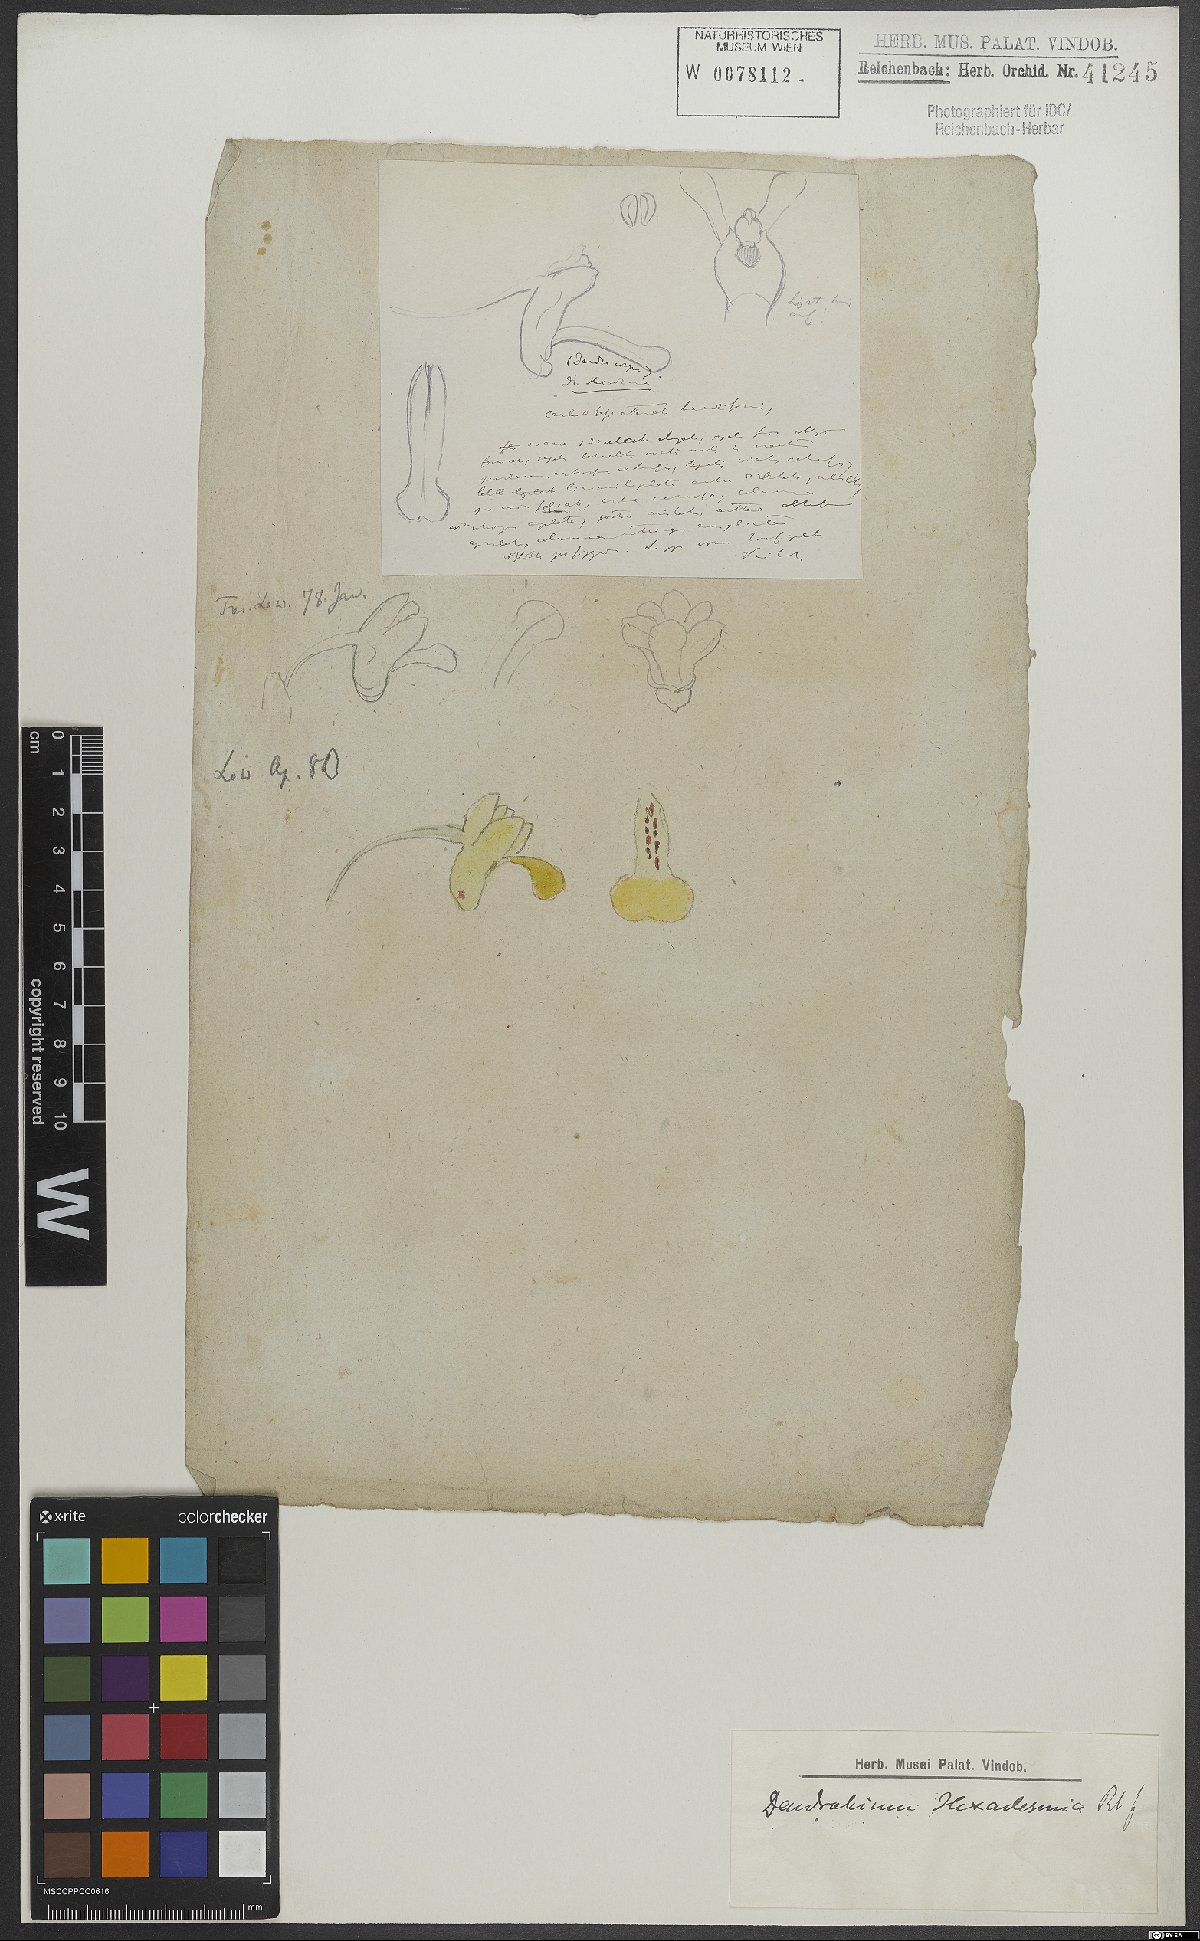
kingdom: Plantae
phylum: Tracheophyta
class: Liliopsida
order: Asparagales
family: Orchidaceae
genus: Dendrobium
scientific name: Dendrobium parcum
